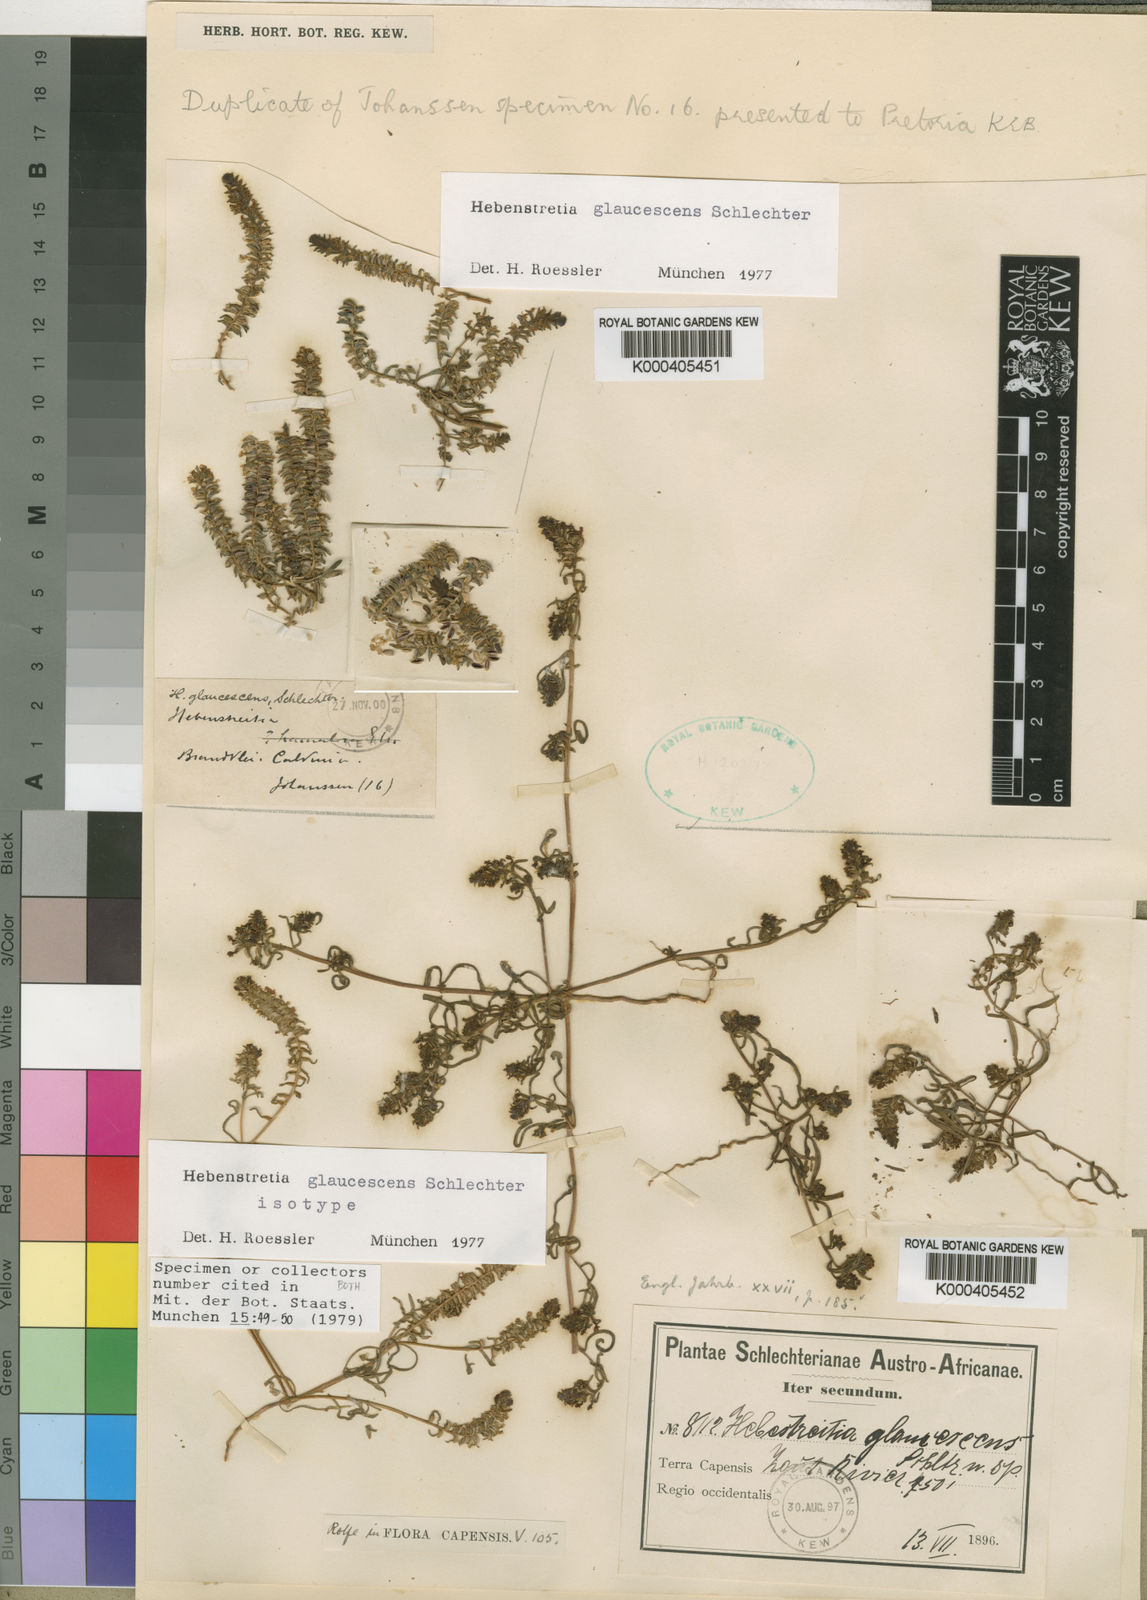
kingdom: Plantae
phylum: Tracheophyta
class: Magnoliopsida
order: Lamiales
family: Scrophulariaceae
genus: Hebenstretia
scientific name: Hebenstretia glaucescens
